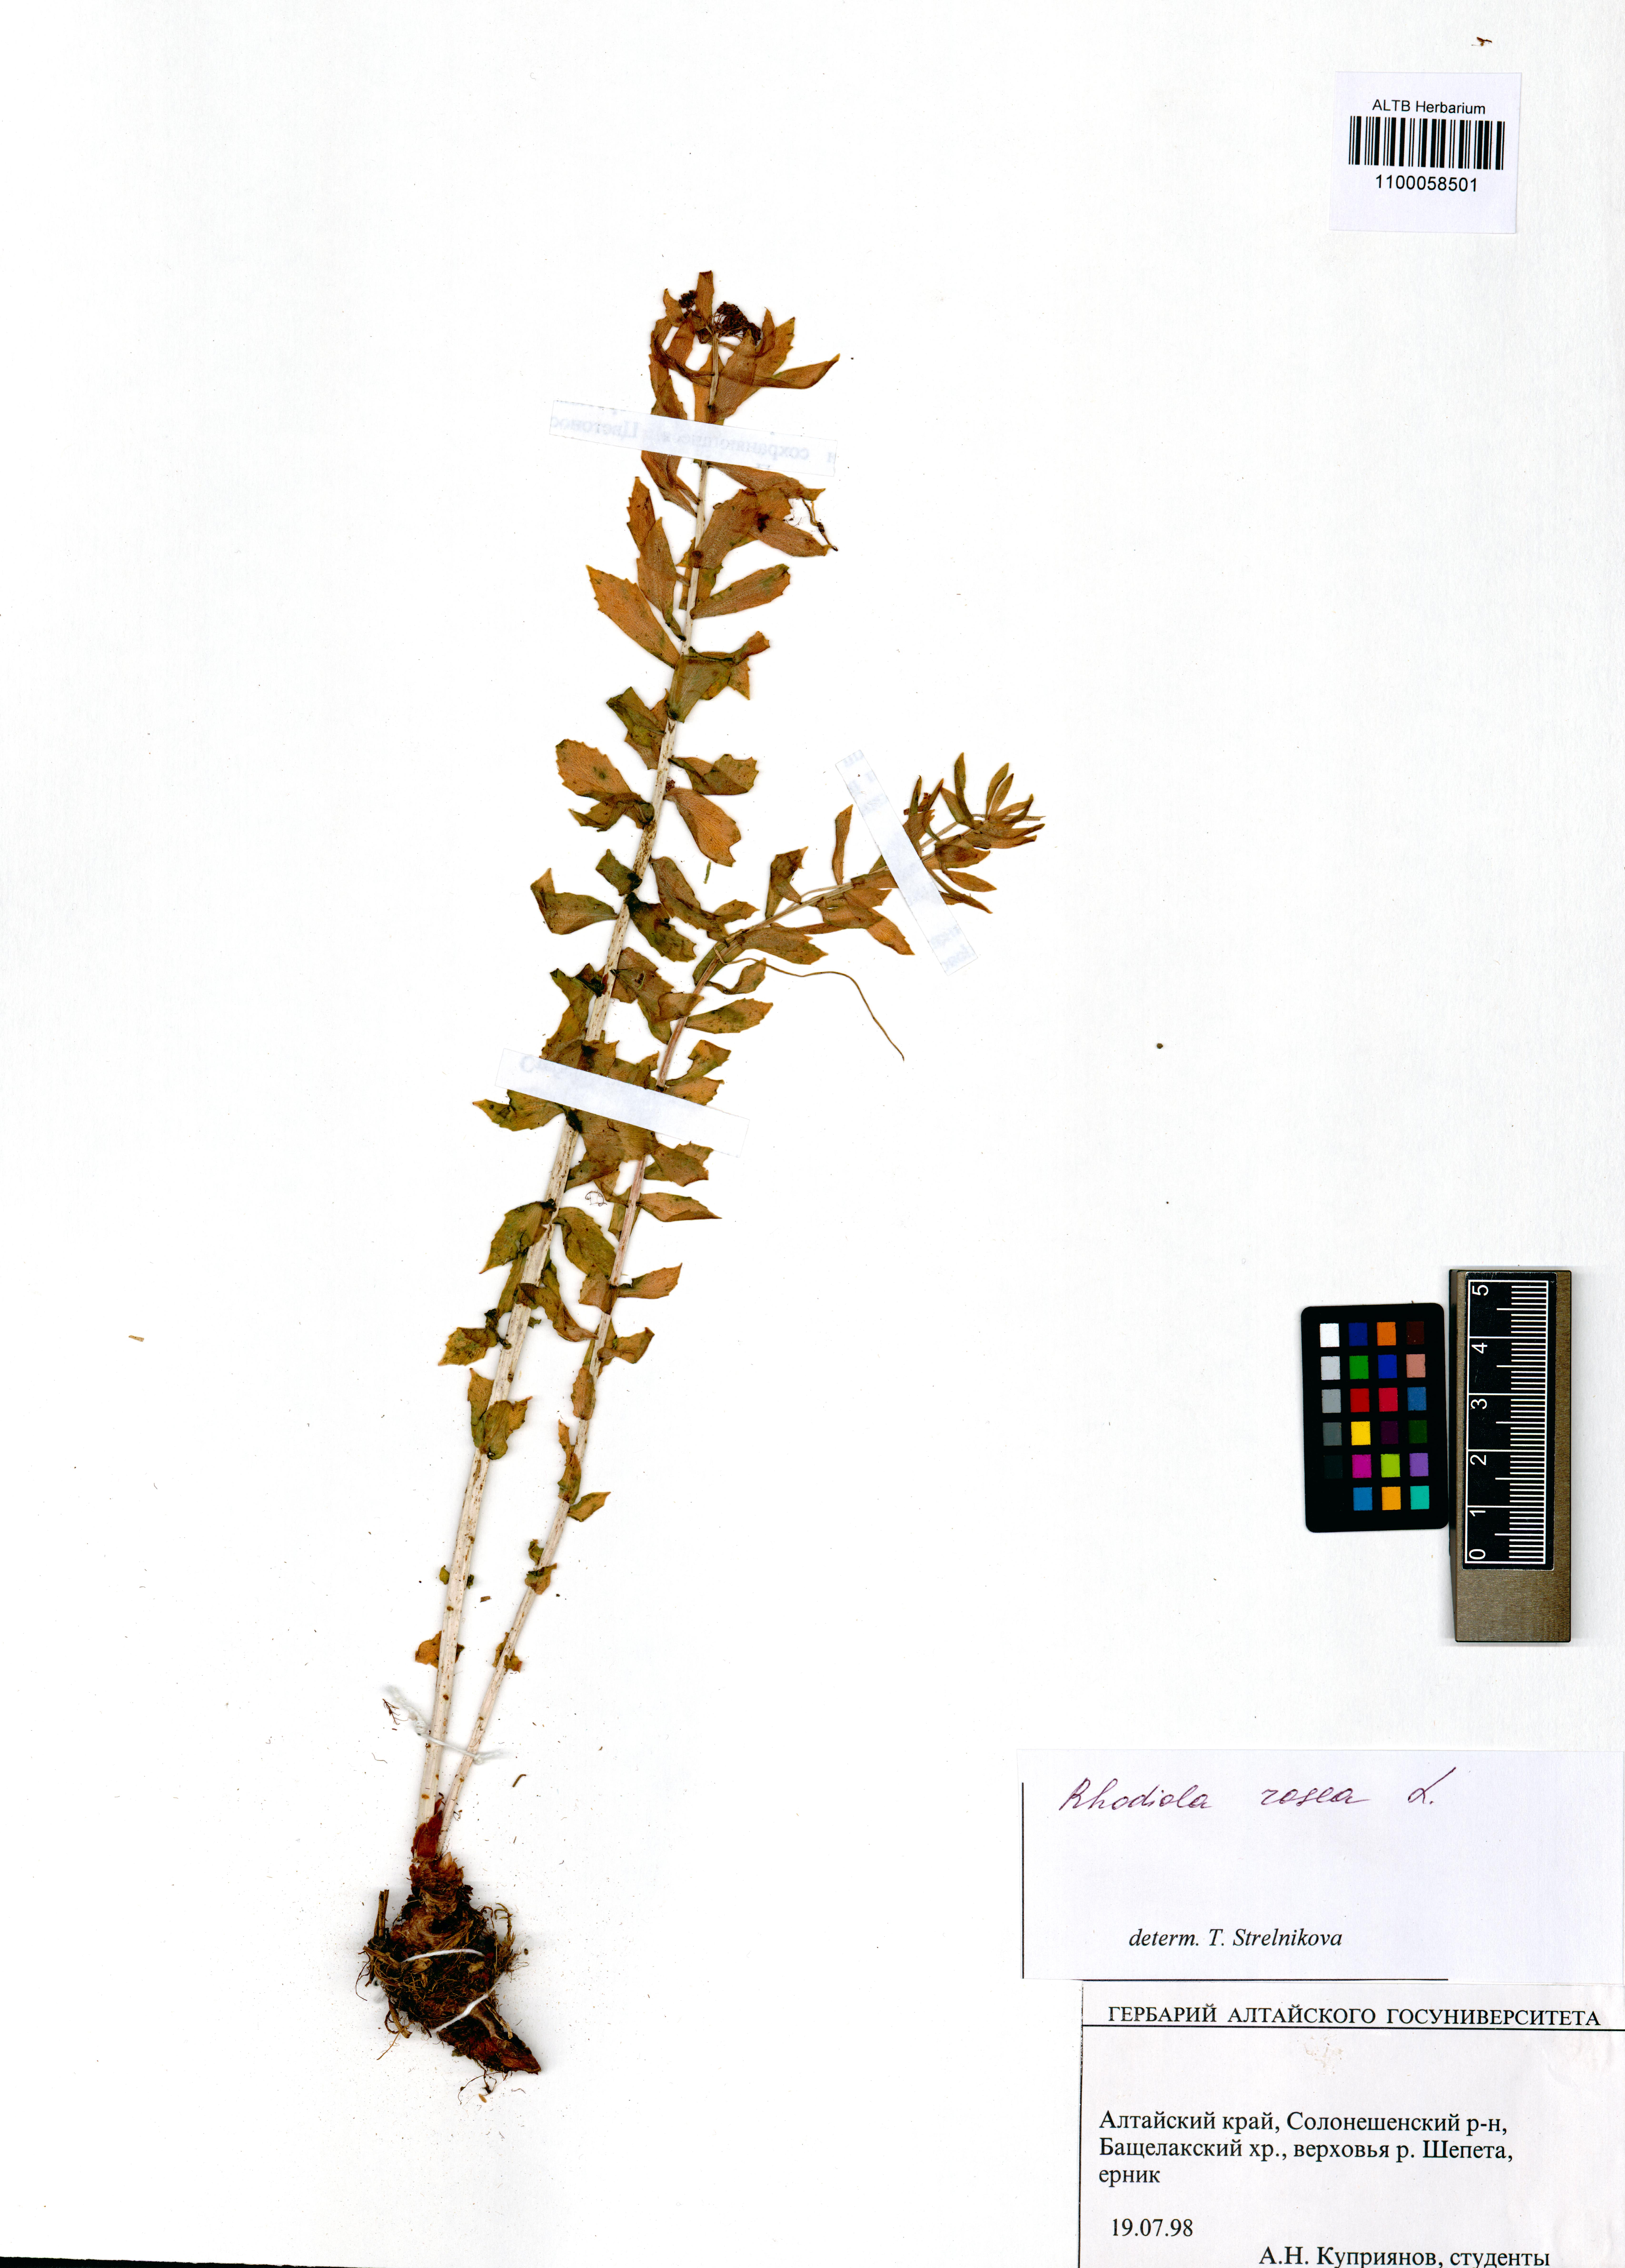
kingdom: Plantae
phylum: Tracheophyta
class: Magnoliopsida
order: Saxifragales
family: Crassulaceae
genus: Rhodiola
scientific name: Rhodiola rosea
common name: Roseroot
